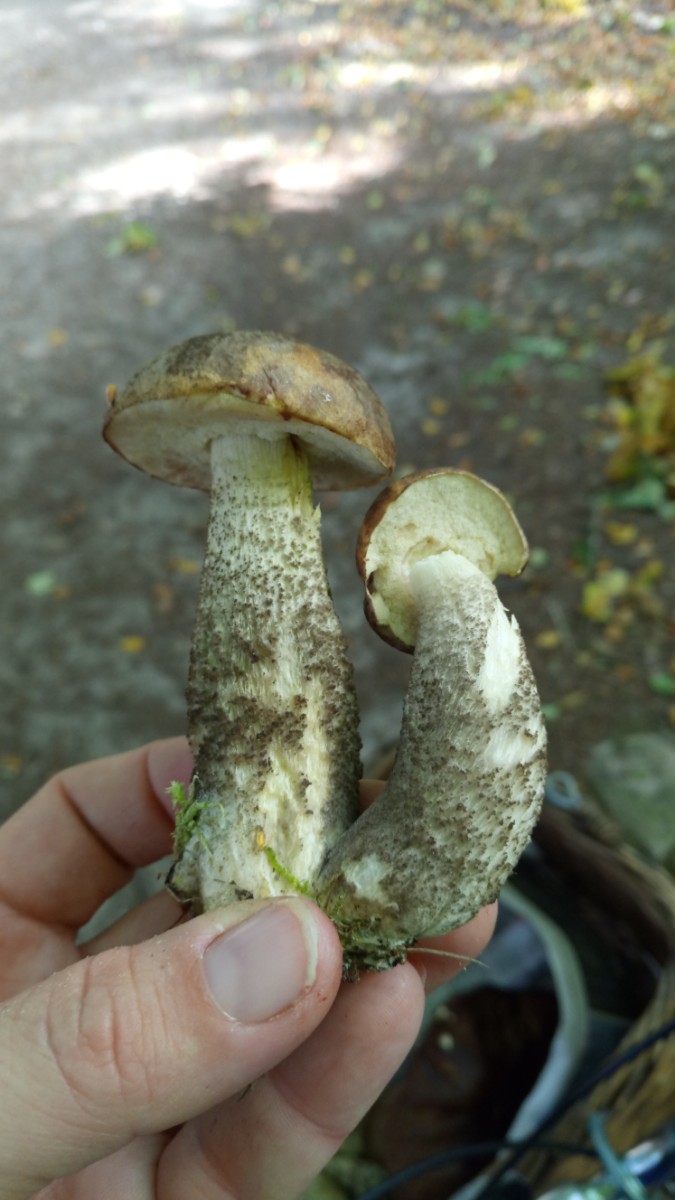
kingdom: Fungi
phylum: Basidiomycota
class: Agaricomycetes
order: Boletales
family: Boletaceae
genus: Leccinum
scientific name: Leccinum scabrum
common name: brun skælrørhat
